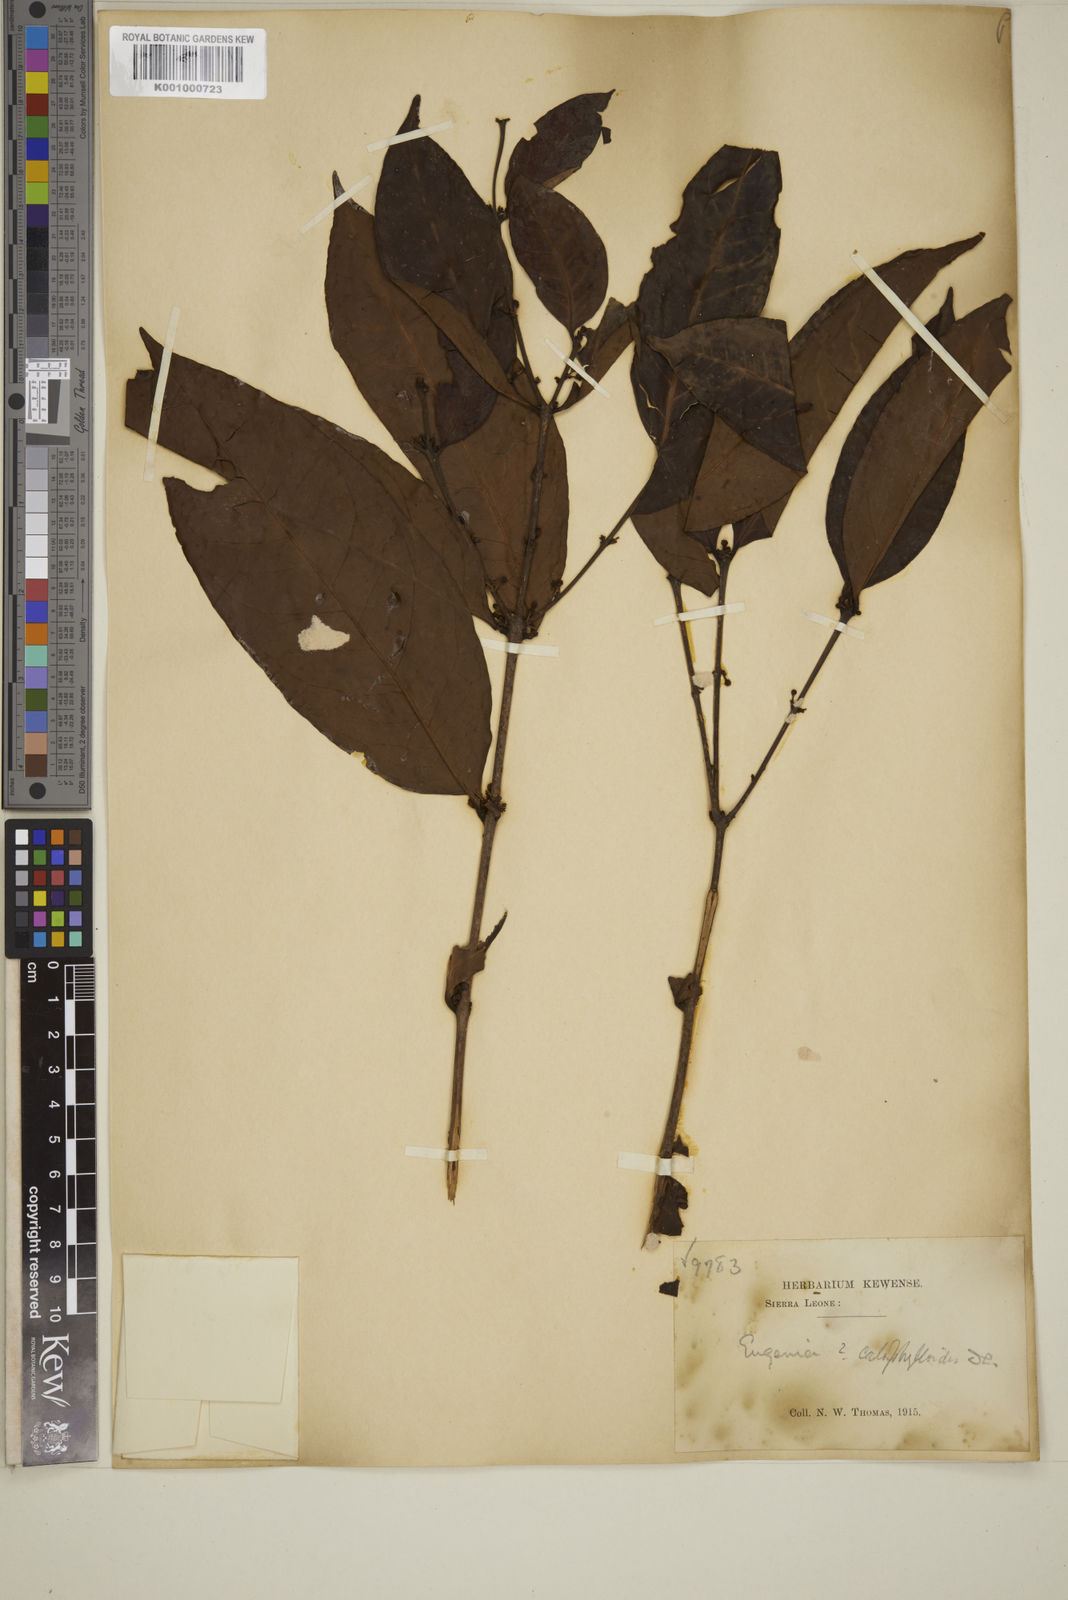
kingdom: Plantae
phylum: Tracheophyta
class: Magnoliopsida
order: Myrtales
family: Myrtaceae
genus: Eugenia
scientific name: Eugenia calophylloides
